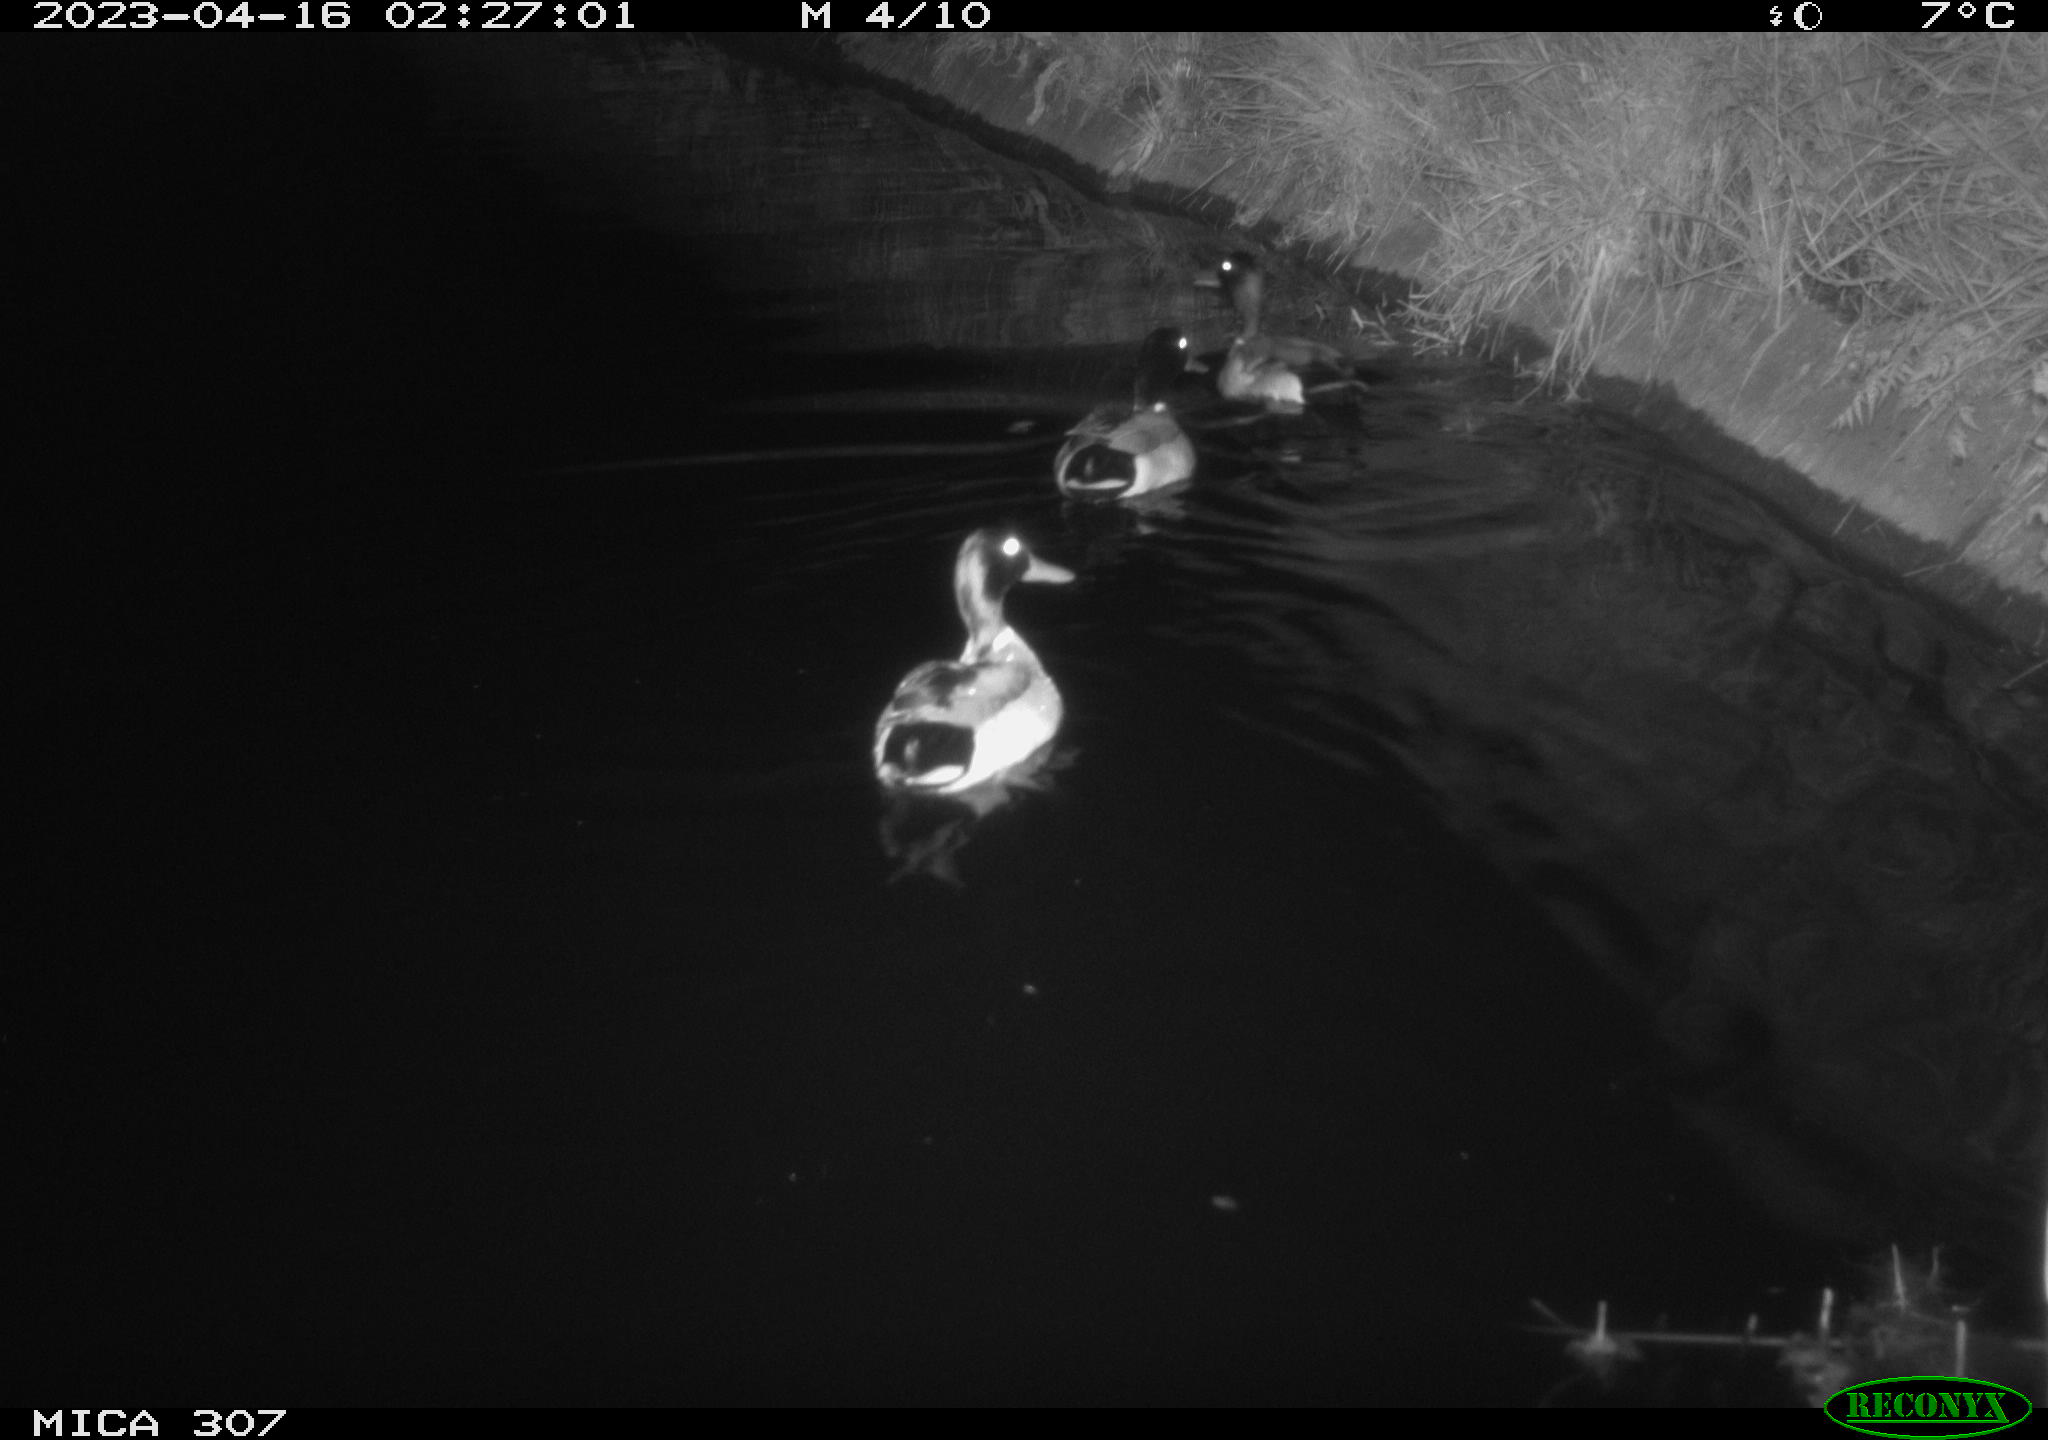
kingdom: Animalia
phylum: Chordata
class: Aves
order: Anseriformes
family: Anatidae
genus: Anas
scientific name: Anas
